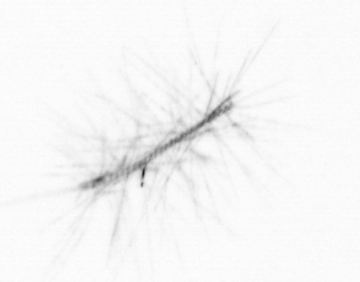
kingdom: Chromista
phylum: Ochrophyta
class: Bacillariophyceae
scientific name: Bacillariophyceae
